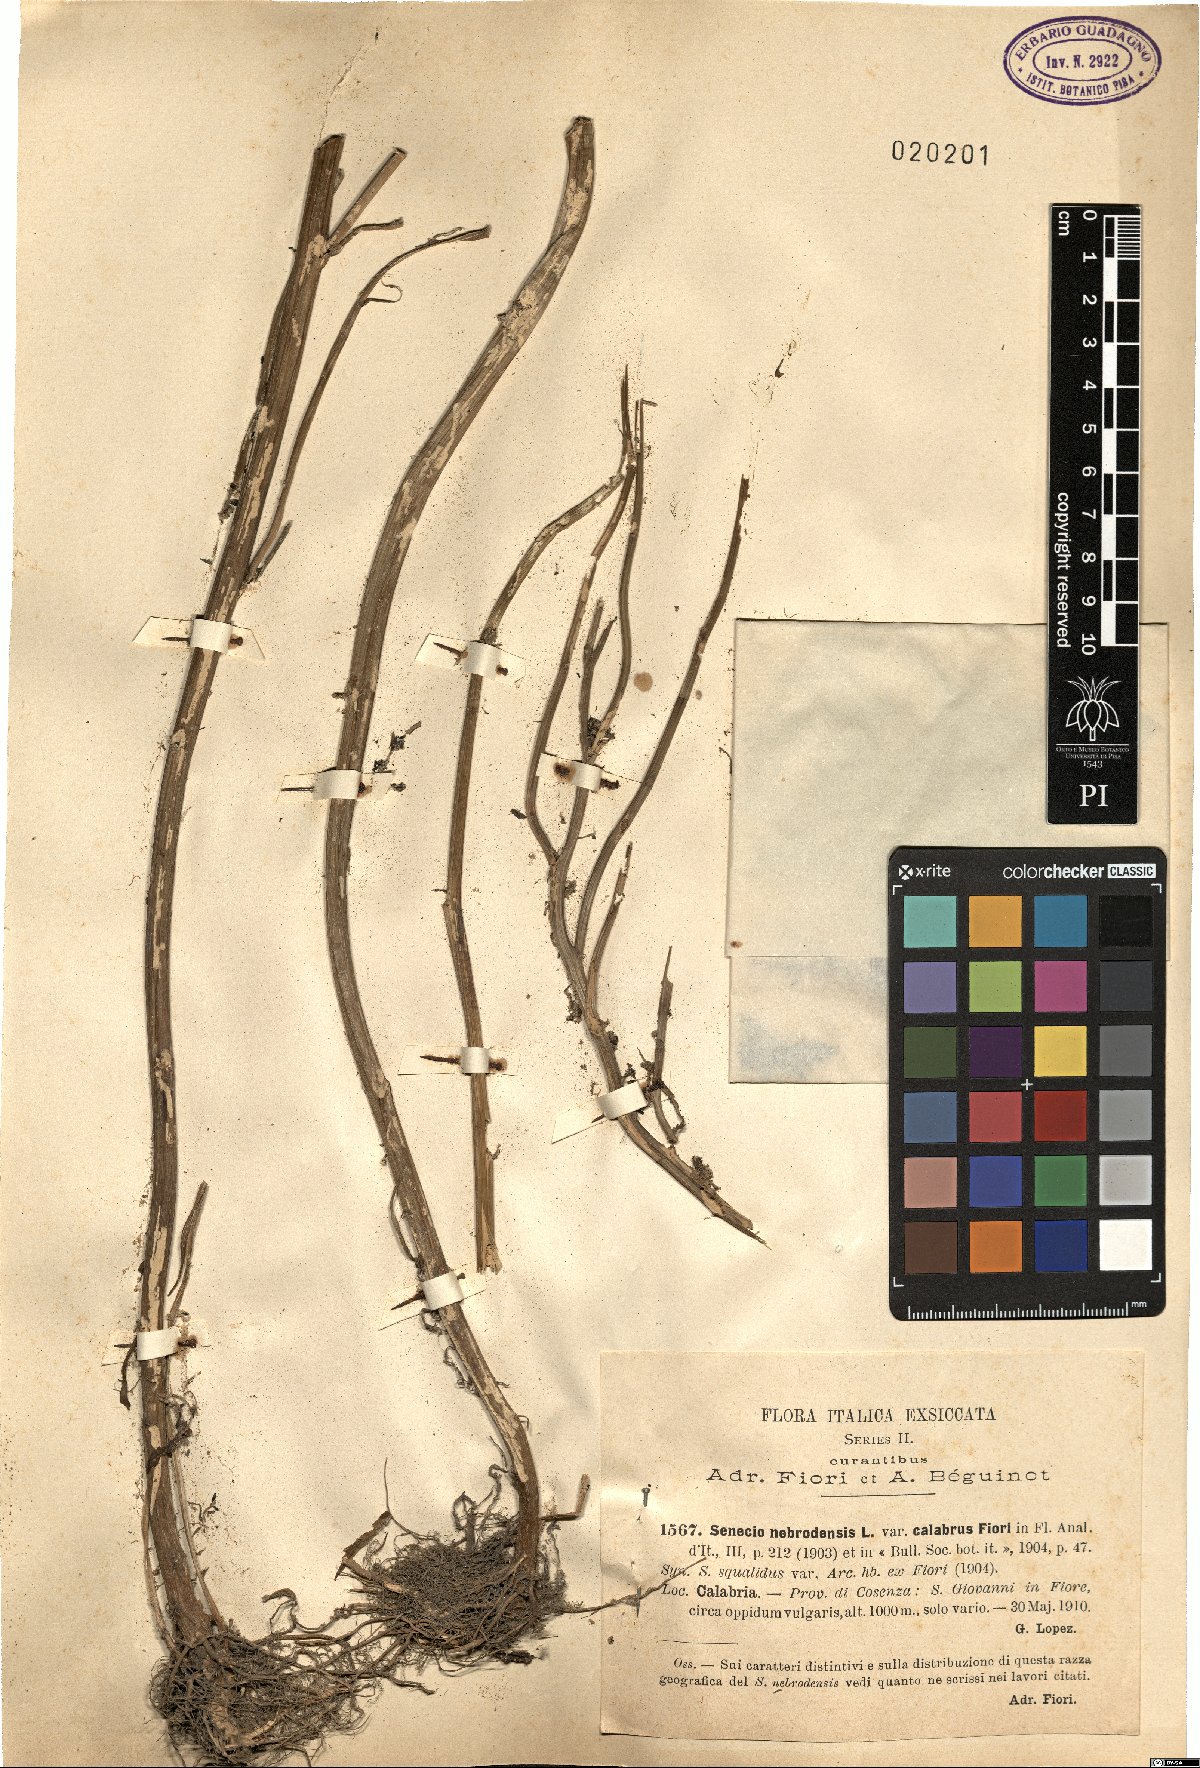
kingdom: Plantae
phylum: Tracheophyta
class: Magnoliopsida
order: Asterales
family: Asteraceae
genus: Senecio
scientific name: Senecio calabrus
